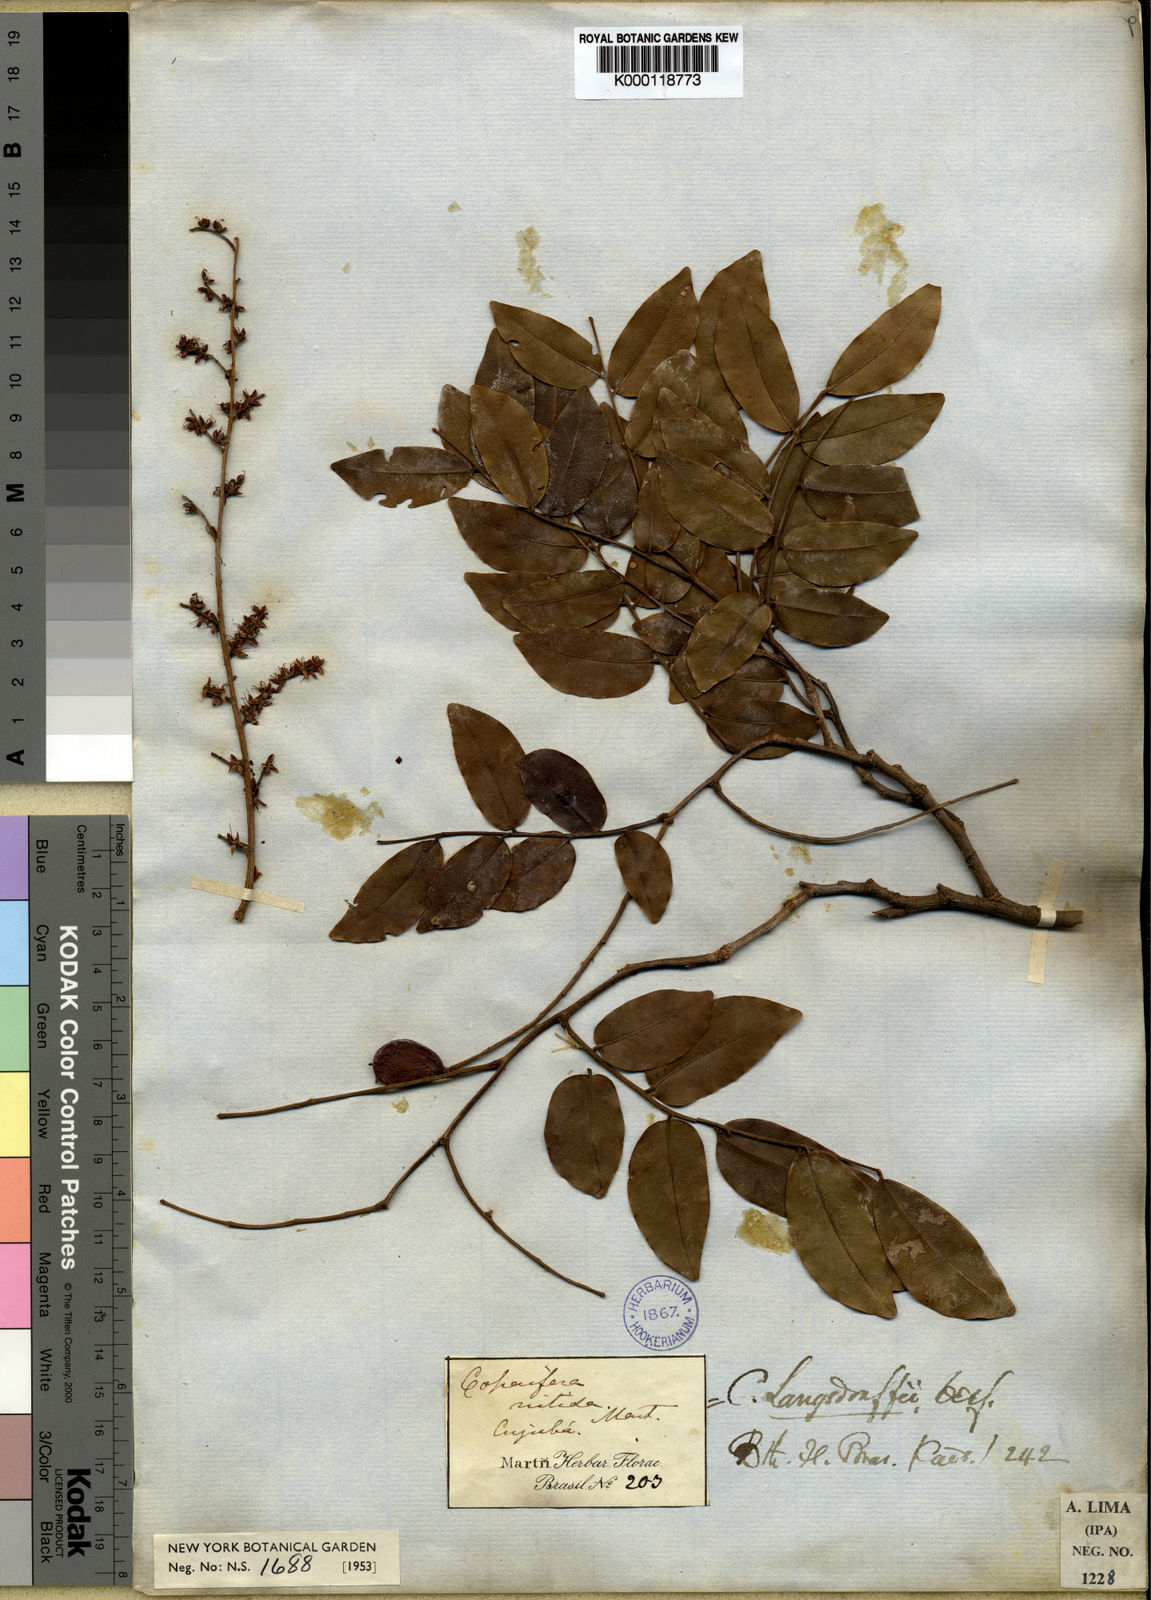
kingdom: Plantae
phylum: Tracheophyta
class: Magnoliopsida
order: Fabales
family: Fabaceae
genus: Copaifera
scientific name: Copaifera langsdorffii
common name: Brazilian diesel tree
